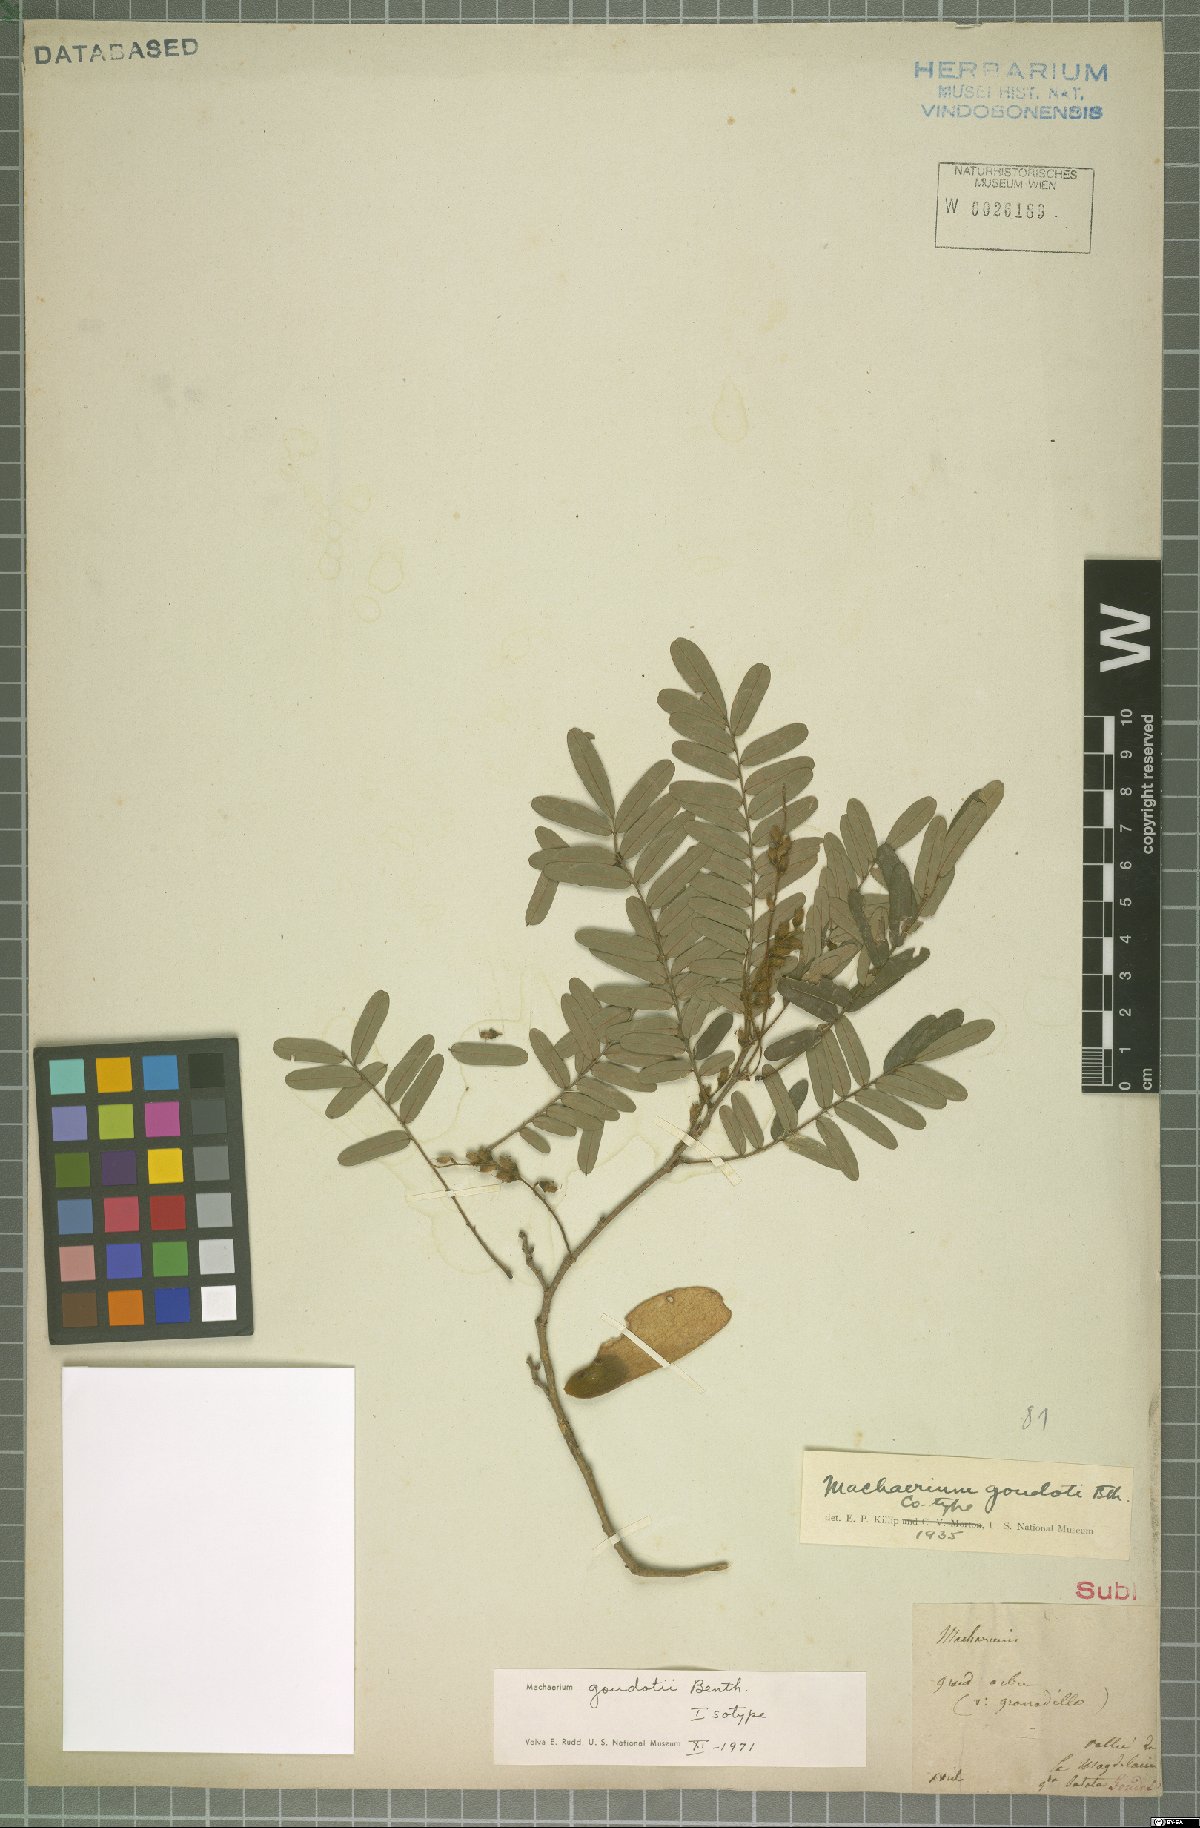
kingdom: Plantae
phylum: Tracheophyta
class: Magnoliopsida
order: Fabales
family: Fabaceae
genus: Machaerium
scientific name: Machaerium goudotii
